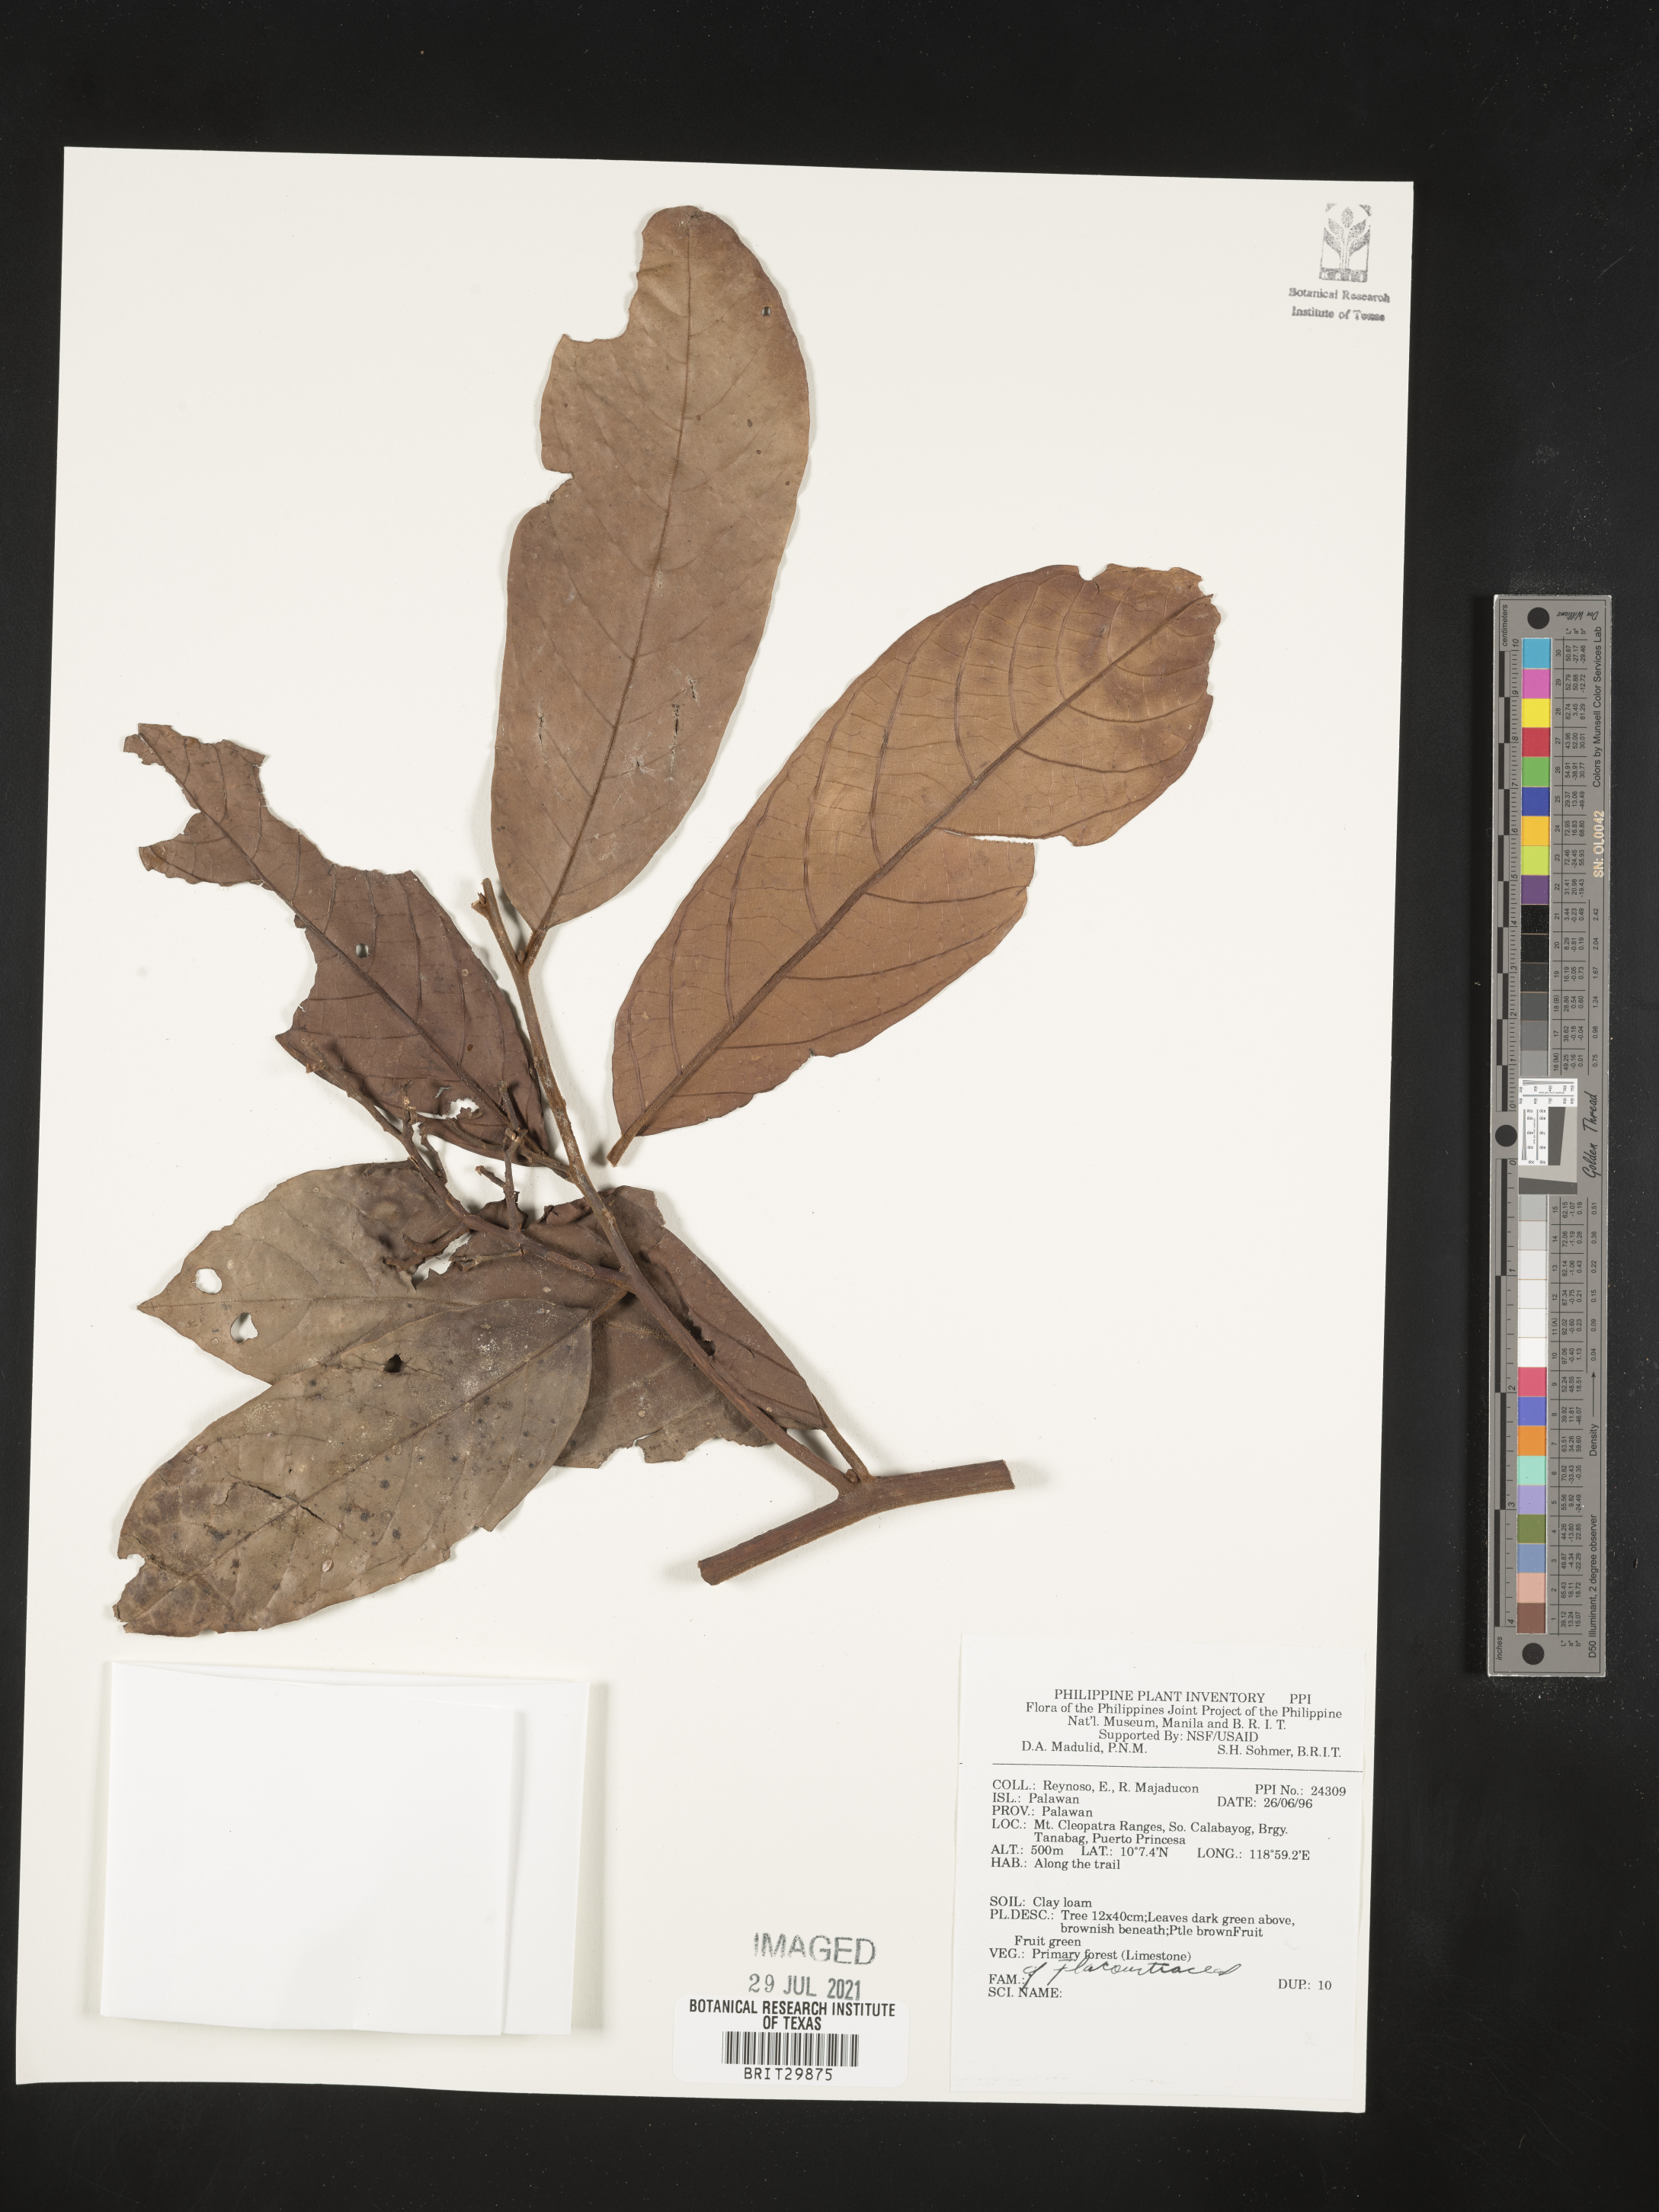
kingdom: Plantae
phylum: Tracheophyta
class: Magnoliopsida
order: Malpighiales
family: Flacourtiaceae
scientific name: Flacourtiaceae
